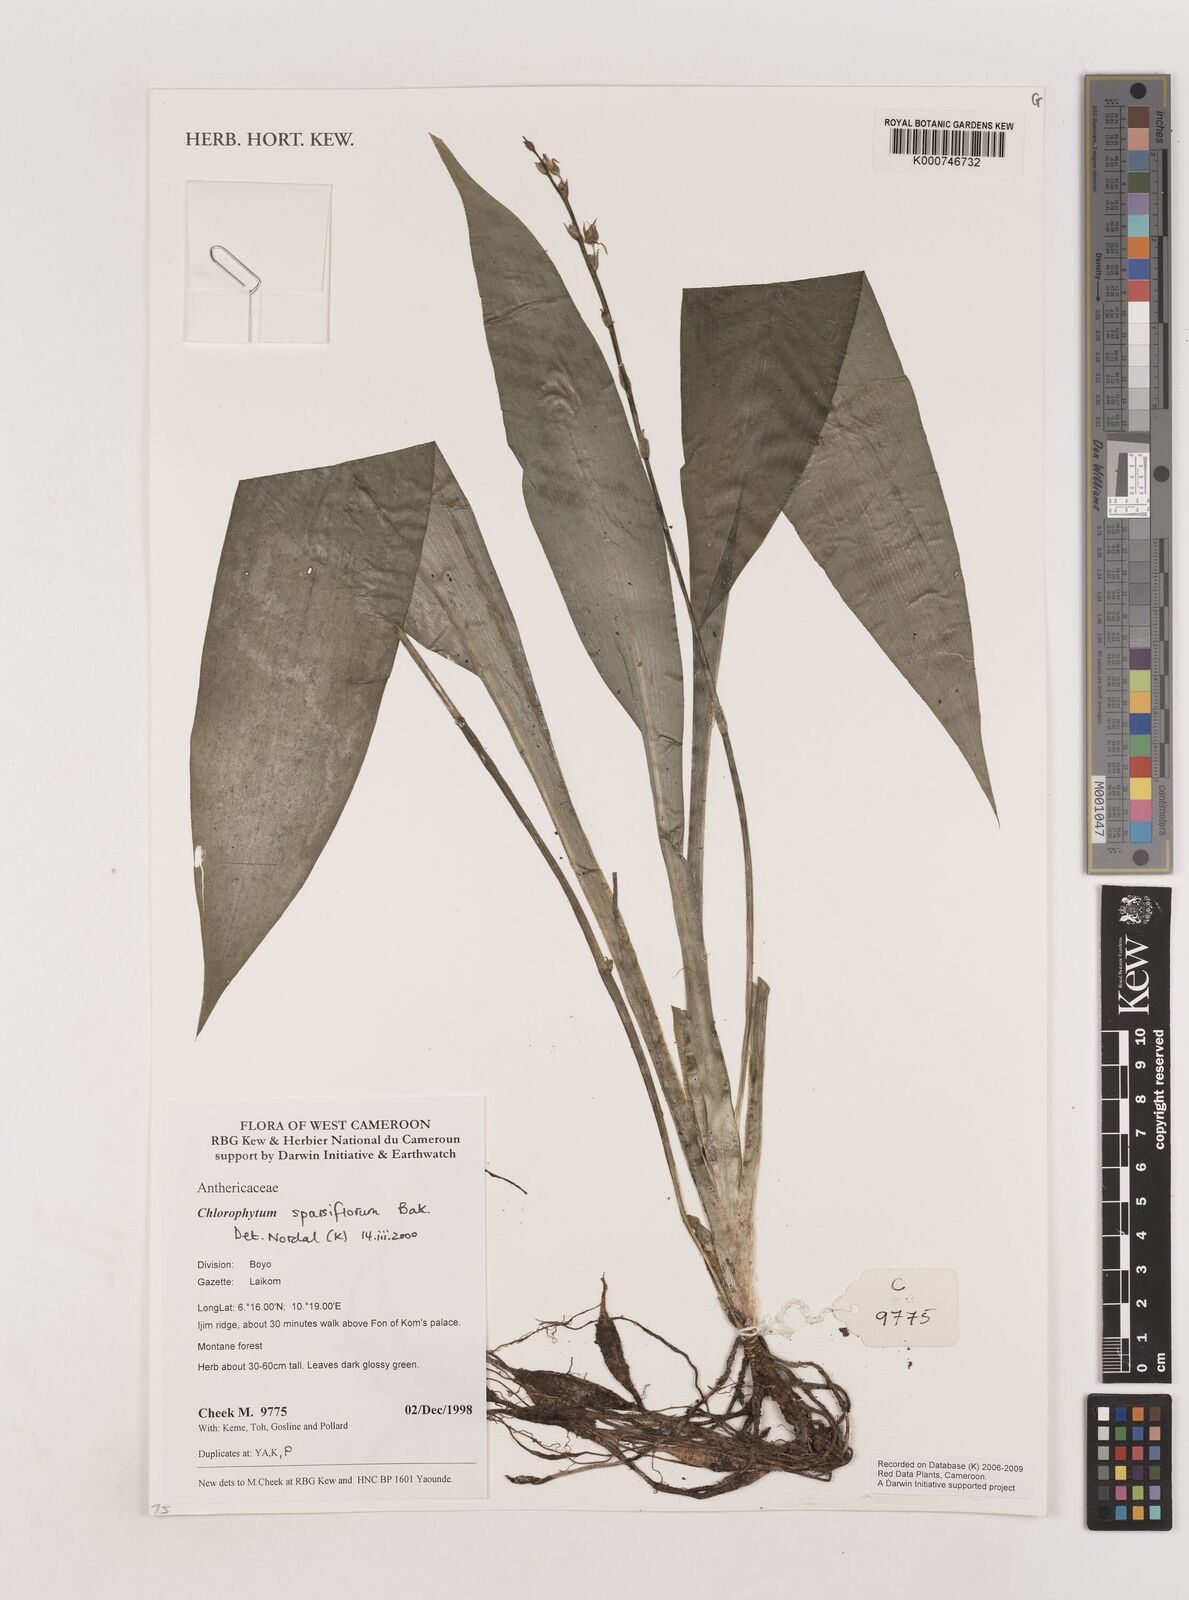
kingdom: Plantae
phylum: Tracheophyta
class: Liliopsida
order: Asparagales
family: Asparagaceae
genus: Chlorophytum
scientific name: Chlorophytum sparsiflorum
